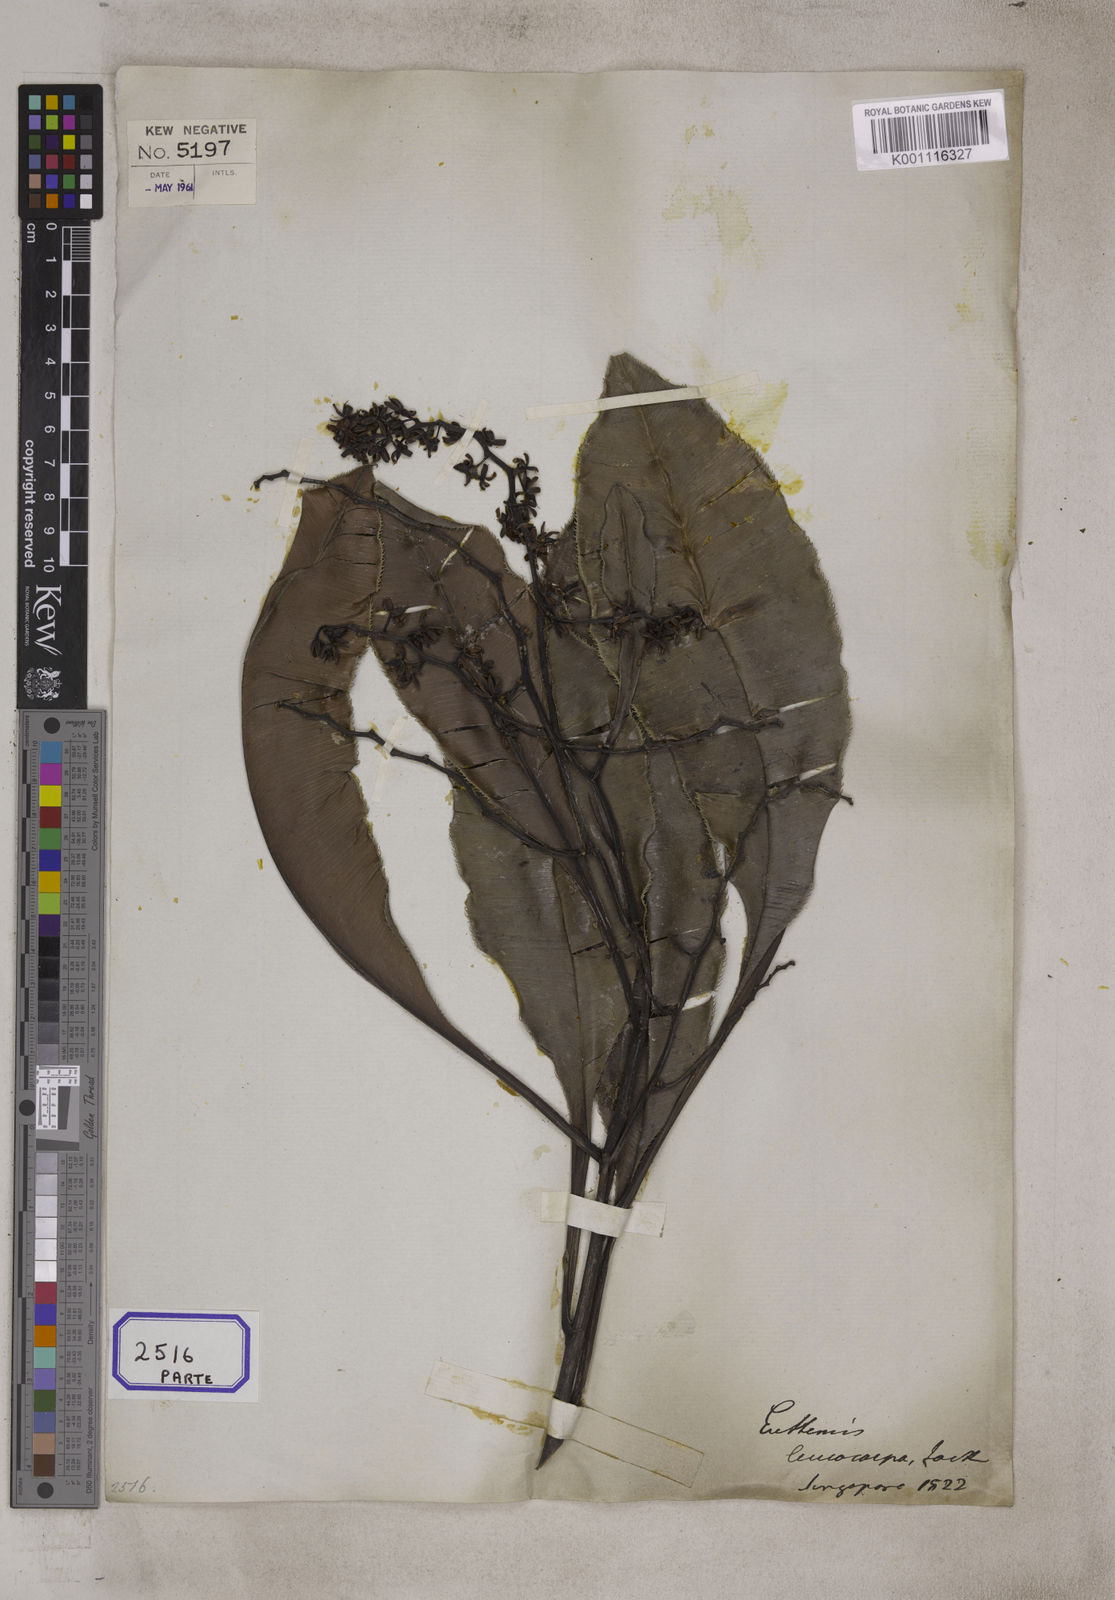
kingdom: Plantae
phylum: Tracheophyta
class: Magnoliopsida
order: Malpighiales
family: Ochnaceae
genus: Euthemis
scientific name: Euthemis leucocarpa
